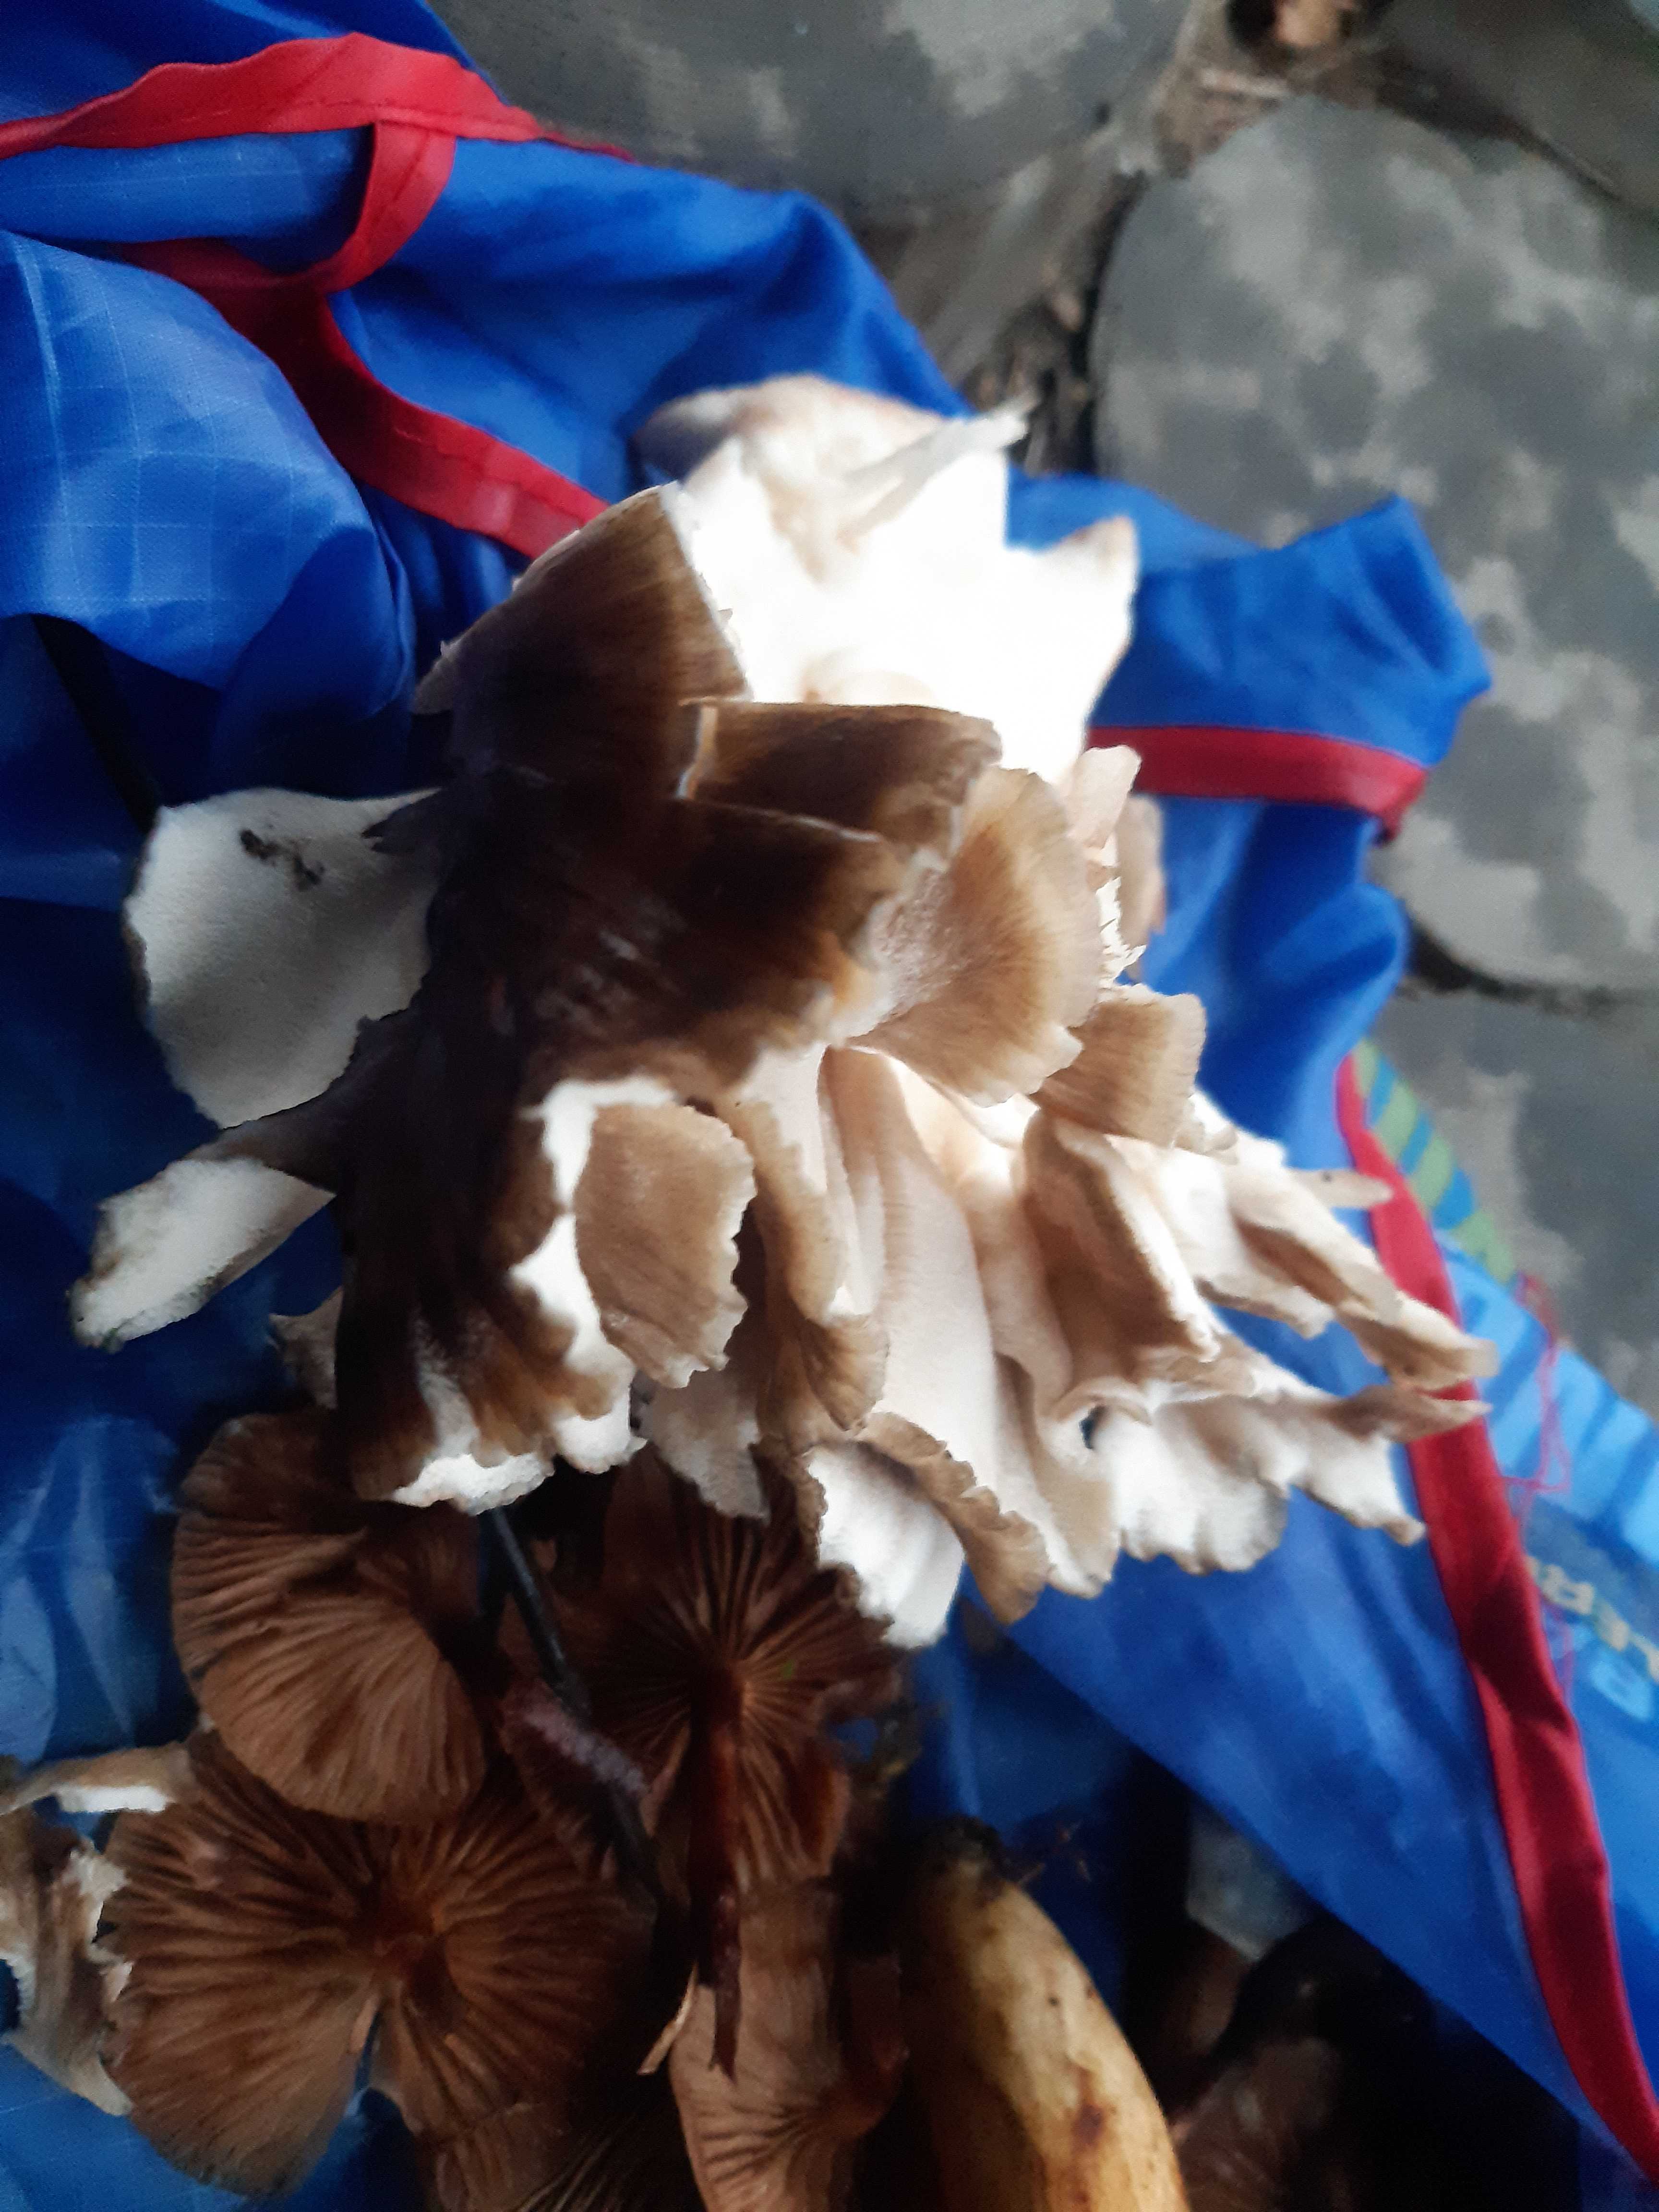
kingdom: Fungi
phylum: Basidiomycota
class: Agaricomycetes
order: Polyporales
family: Grifolaceae
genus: Grifola
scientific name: Grifola frondosa
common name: tueporesvamp
